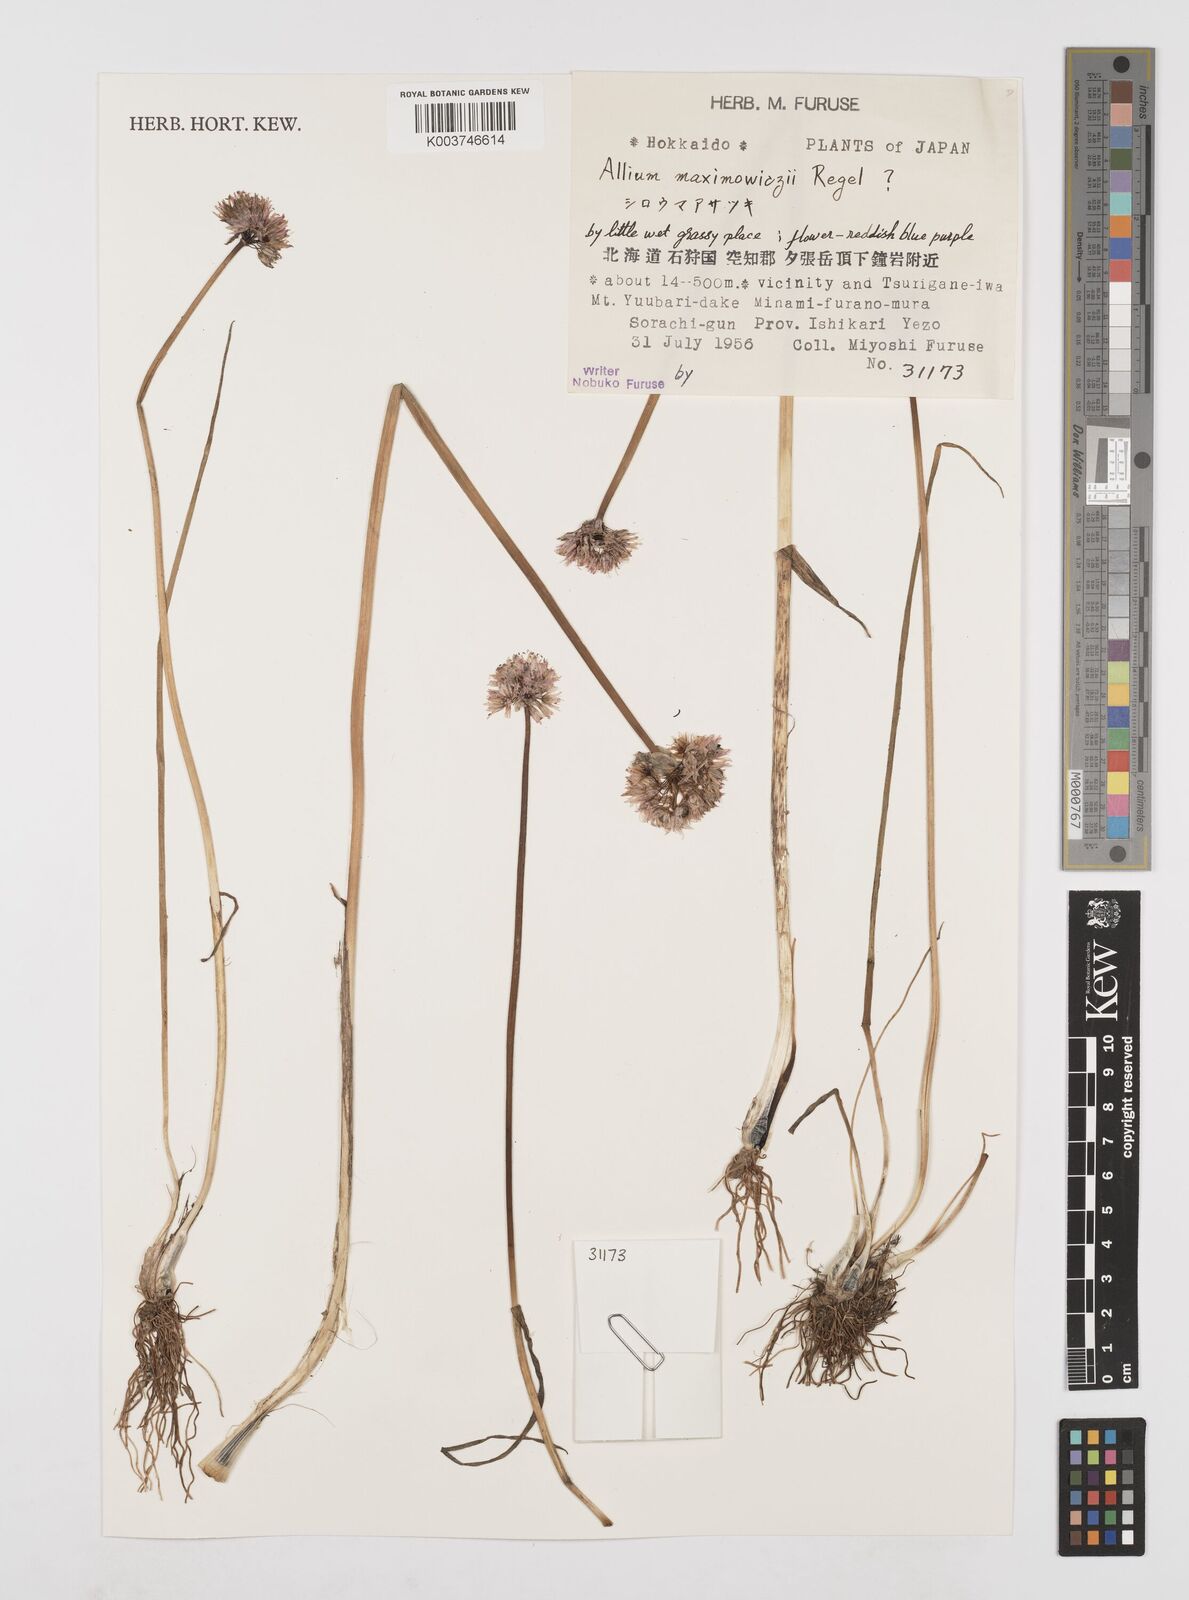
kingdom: Plantae
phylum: Tracheophyta
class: Liliopsida
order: Asparagales
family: Amaryllidaceae
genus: Allium
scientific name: Allium maximowiczii
